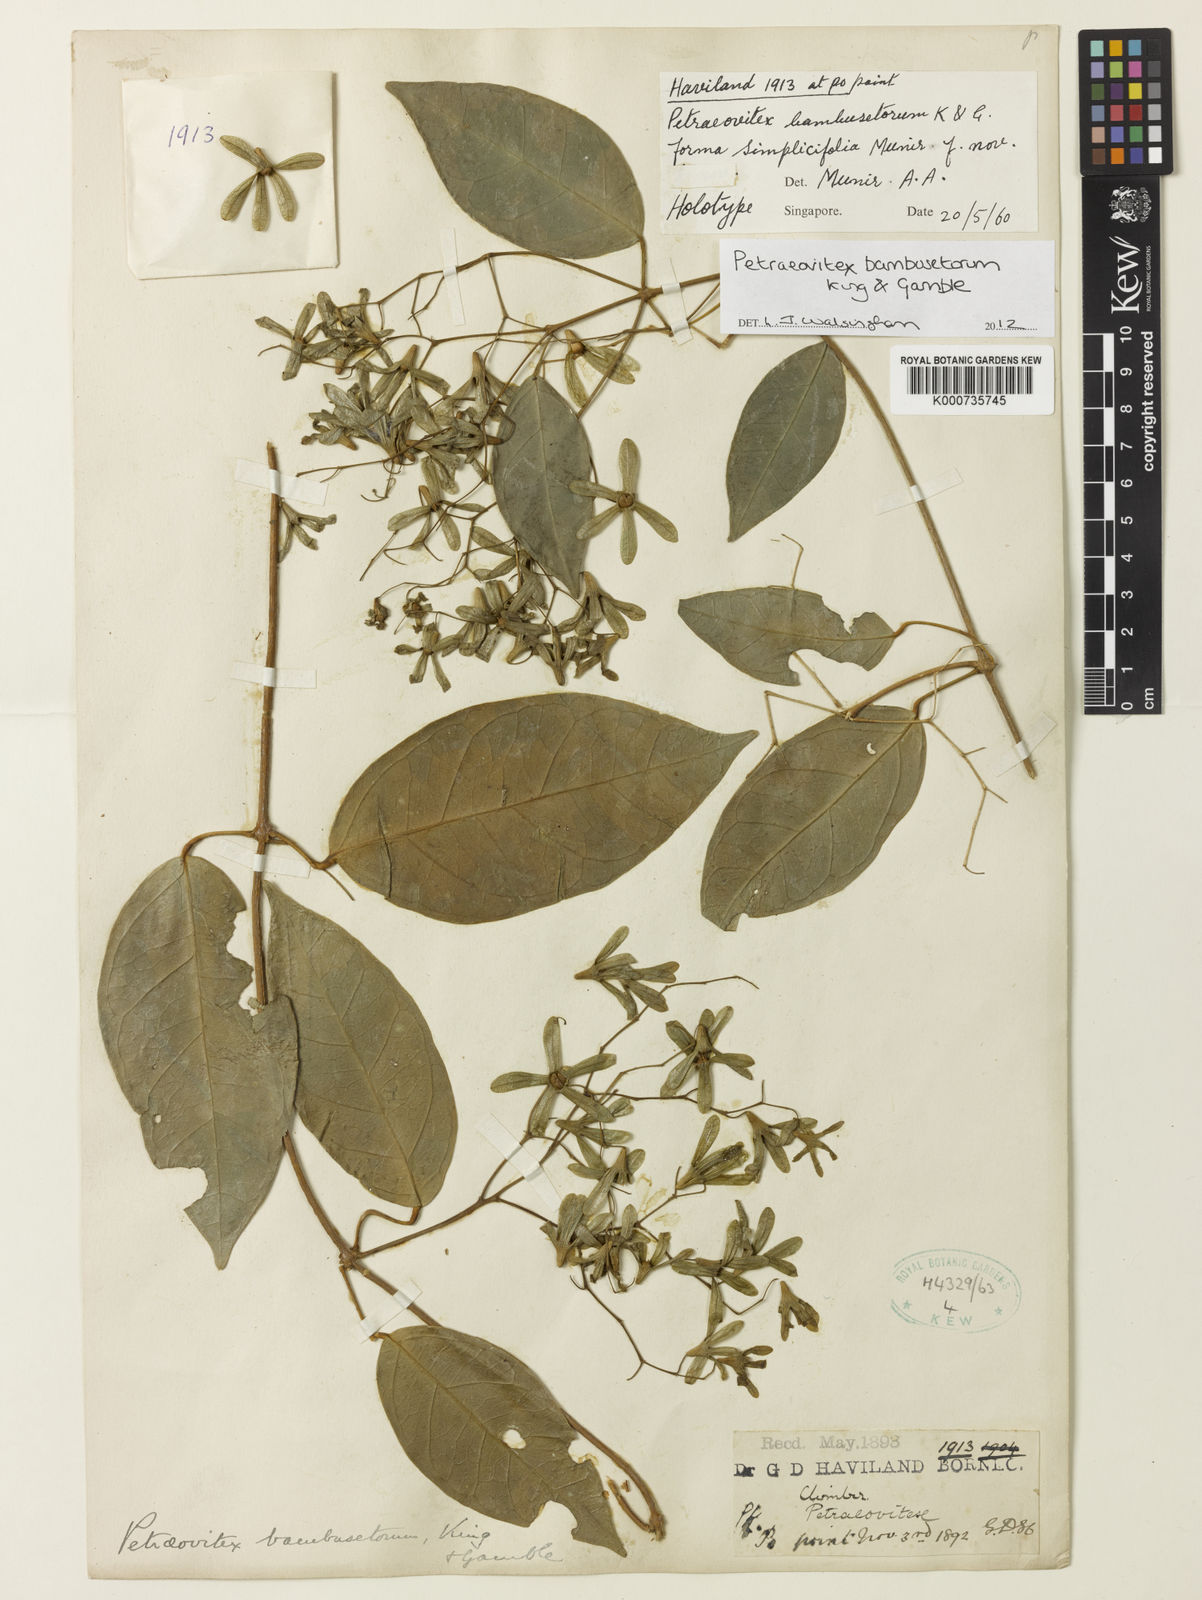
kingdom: Plantae
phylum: Tracheophyta
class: Magnoliopsida
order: Lamiales
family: Lamiaceae
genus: Petraeovitex
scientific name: Petraeovitex bambusetorum
